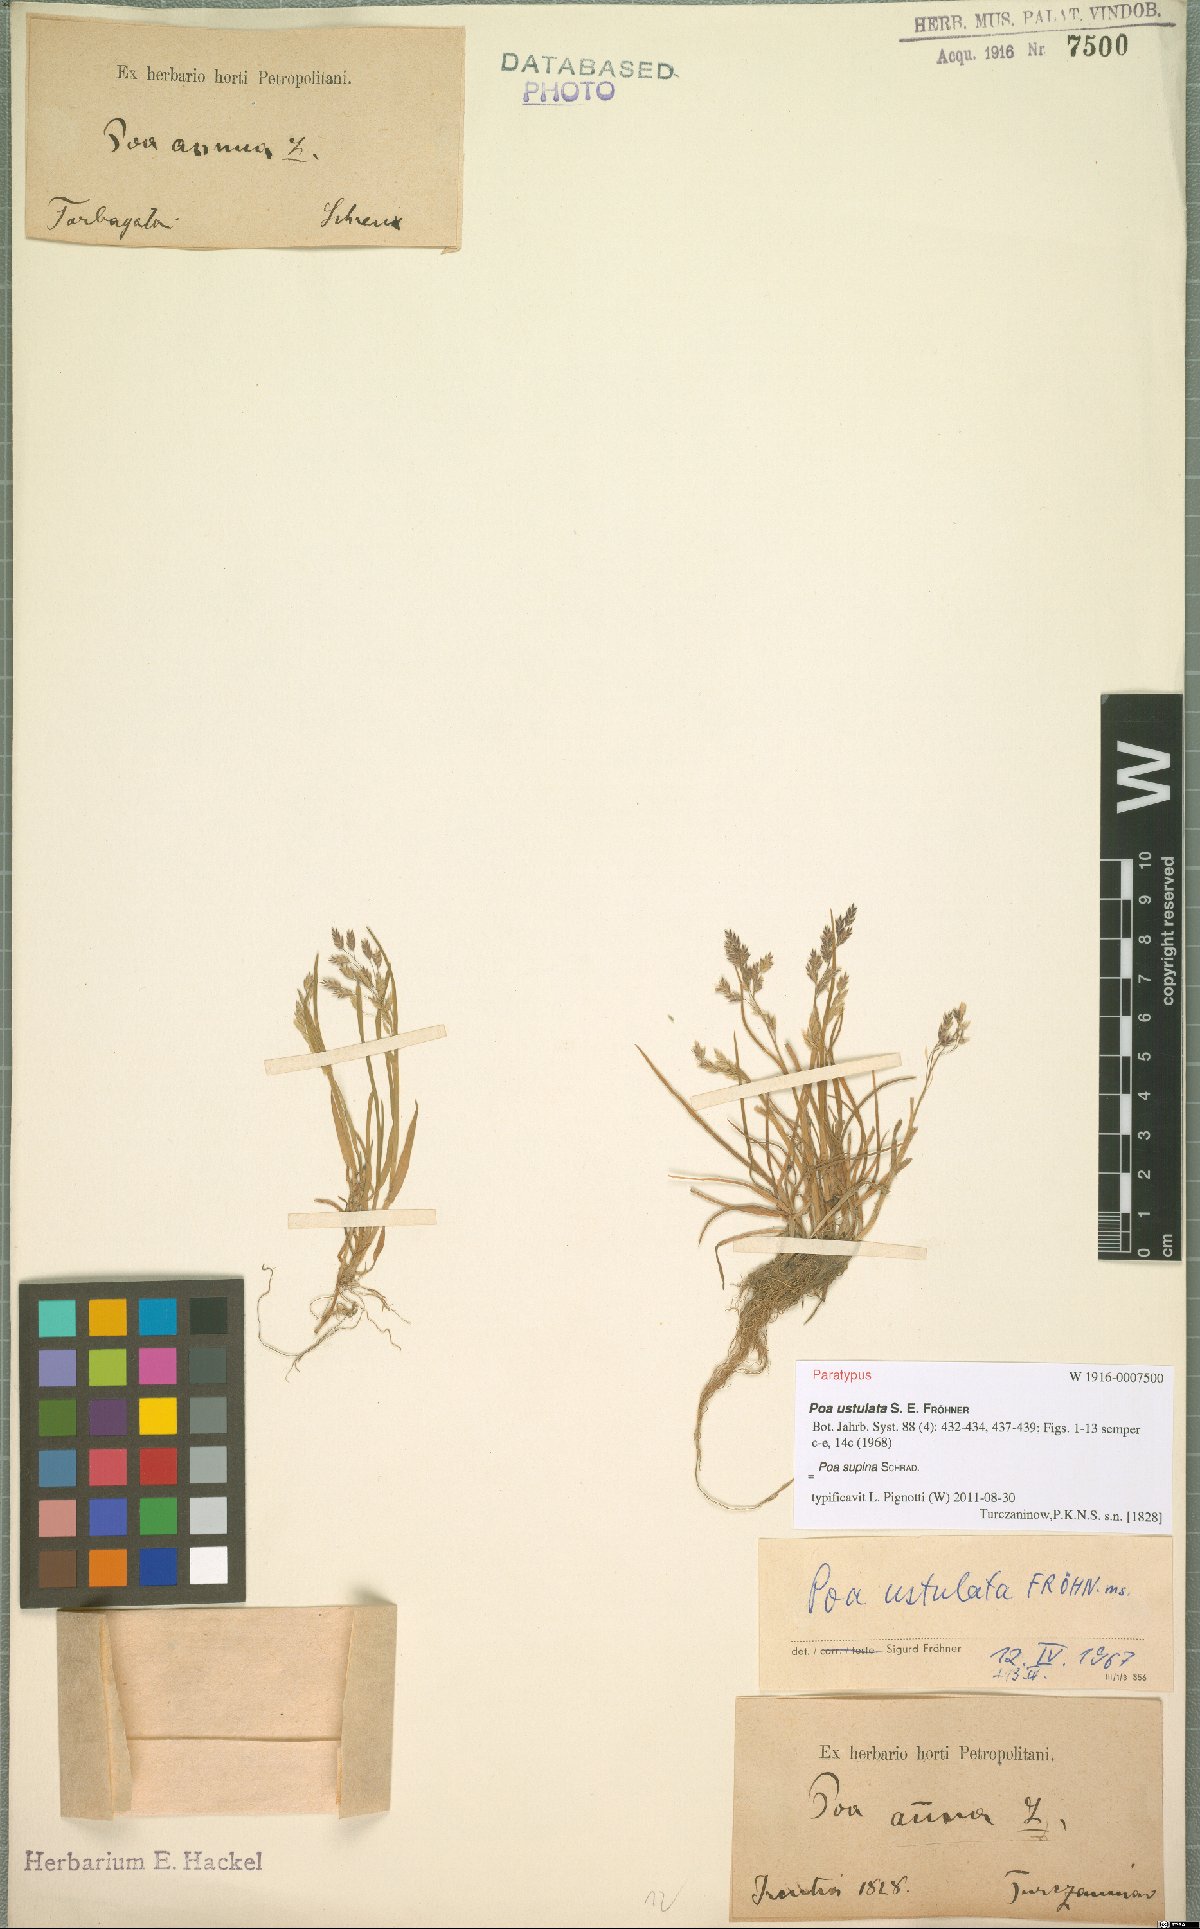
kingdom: Plantae
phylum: Tracheophyta
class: Liliopsida
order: Poales
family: Poaceae
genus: Poa
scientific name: Poa supina
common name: Supina bluegrass
